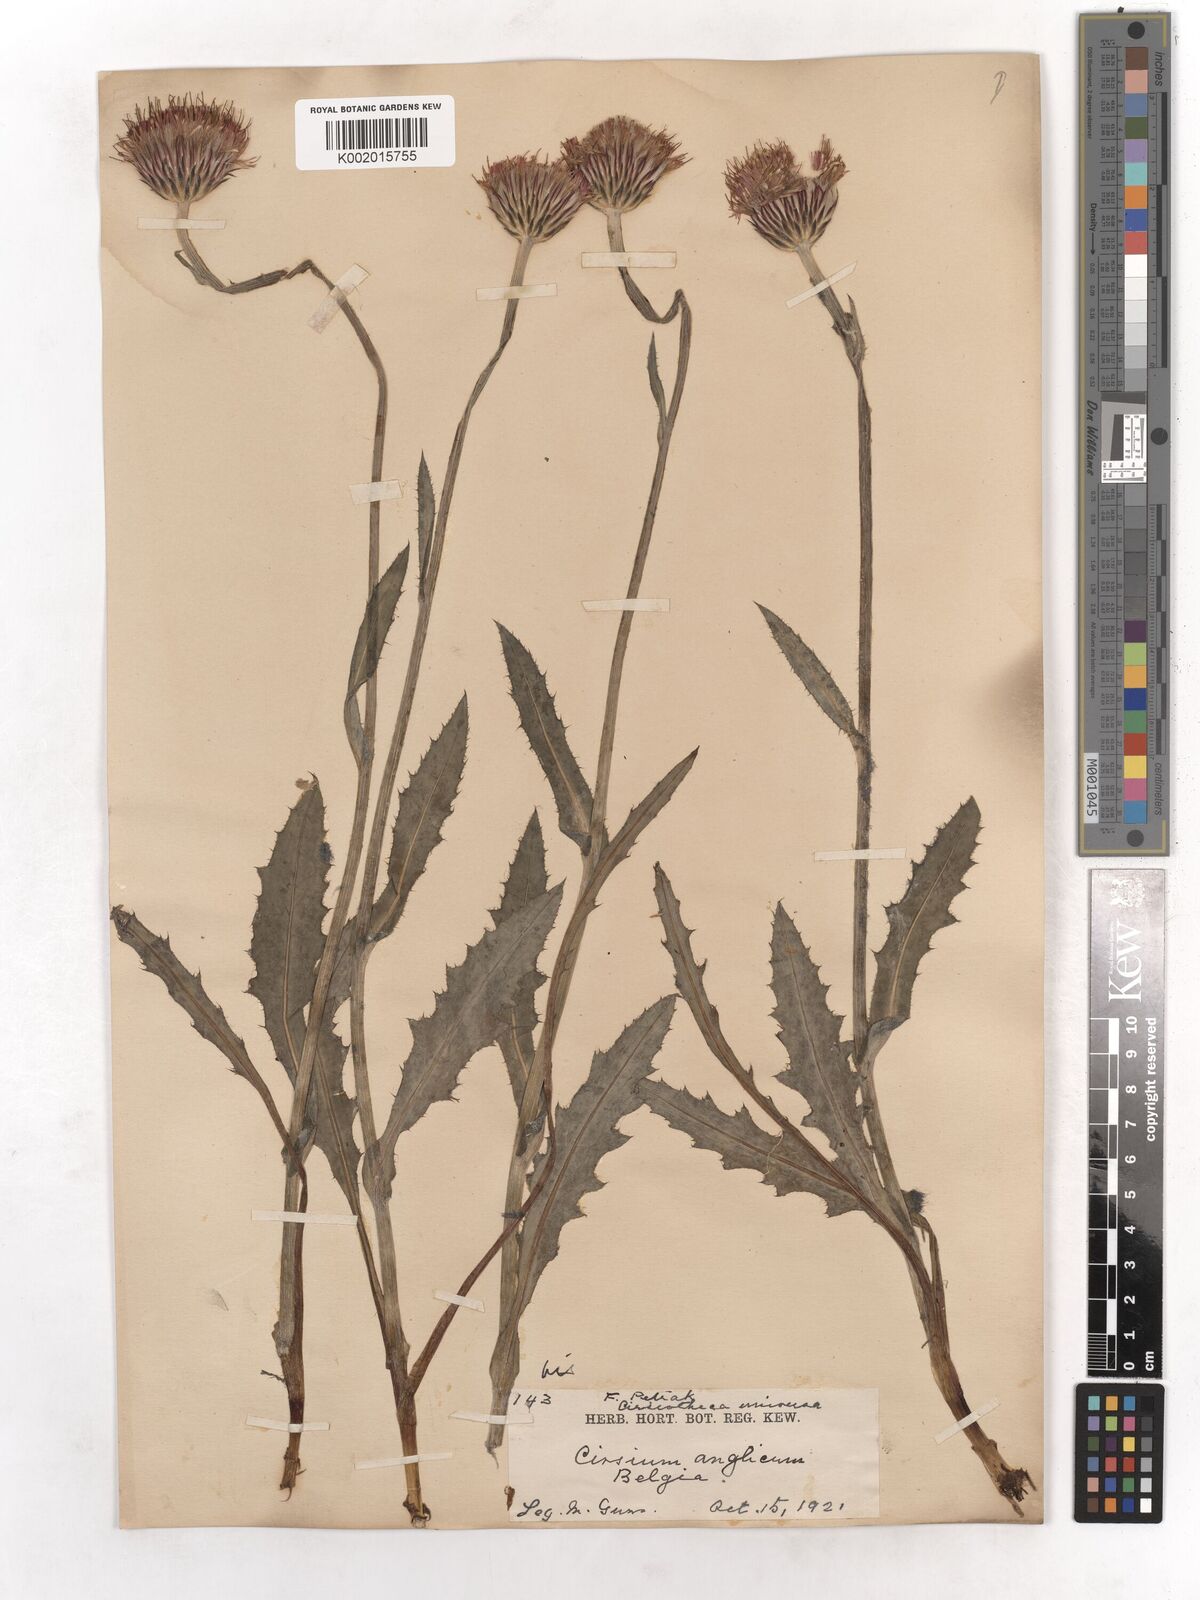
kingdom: Plantae
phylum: Tracheophyta
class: Magnoliopsida
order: Asterales
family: Asteraceae
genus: Cirsium
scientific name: Cirsium dissectum
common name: Meadow thistle
